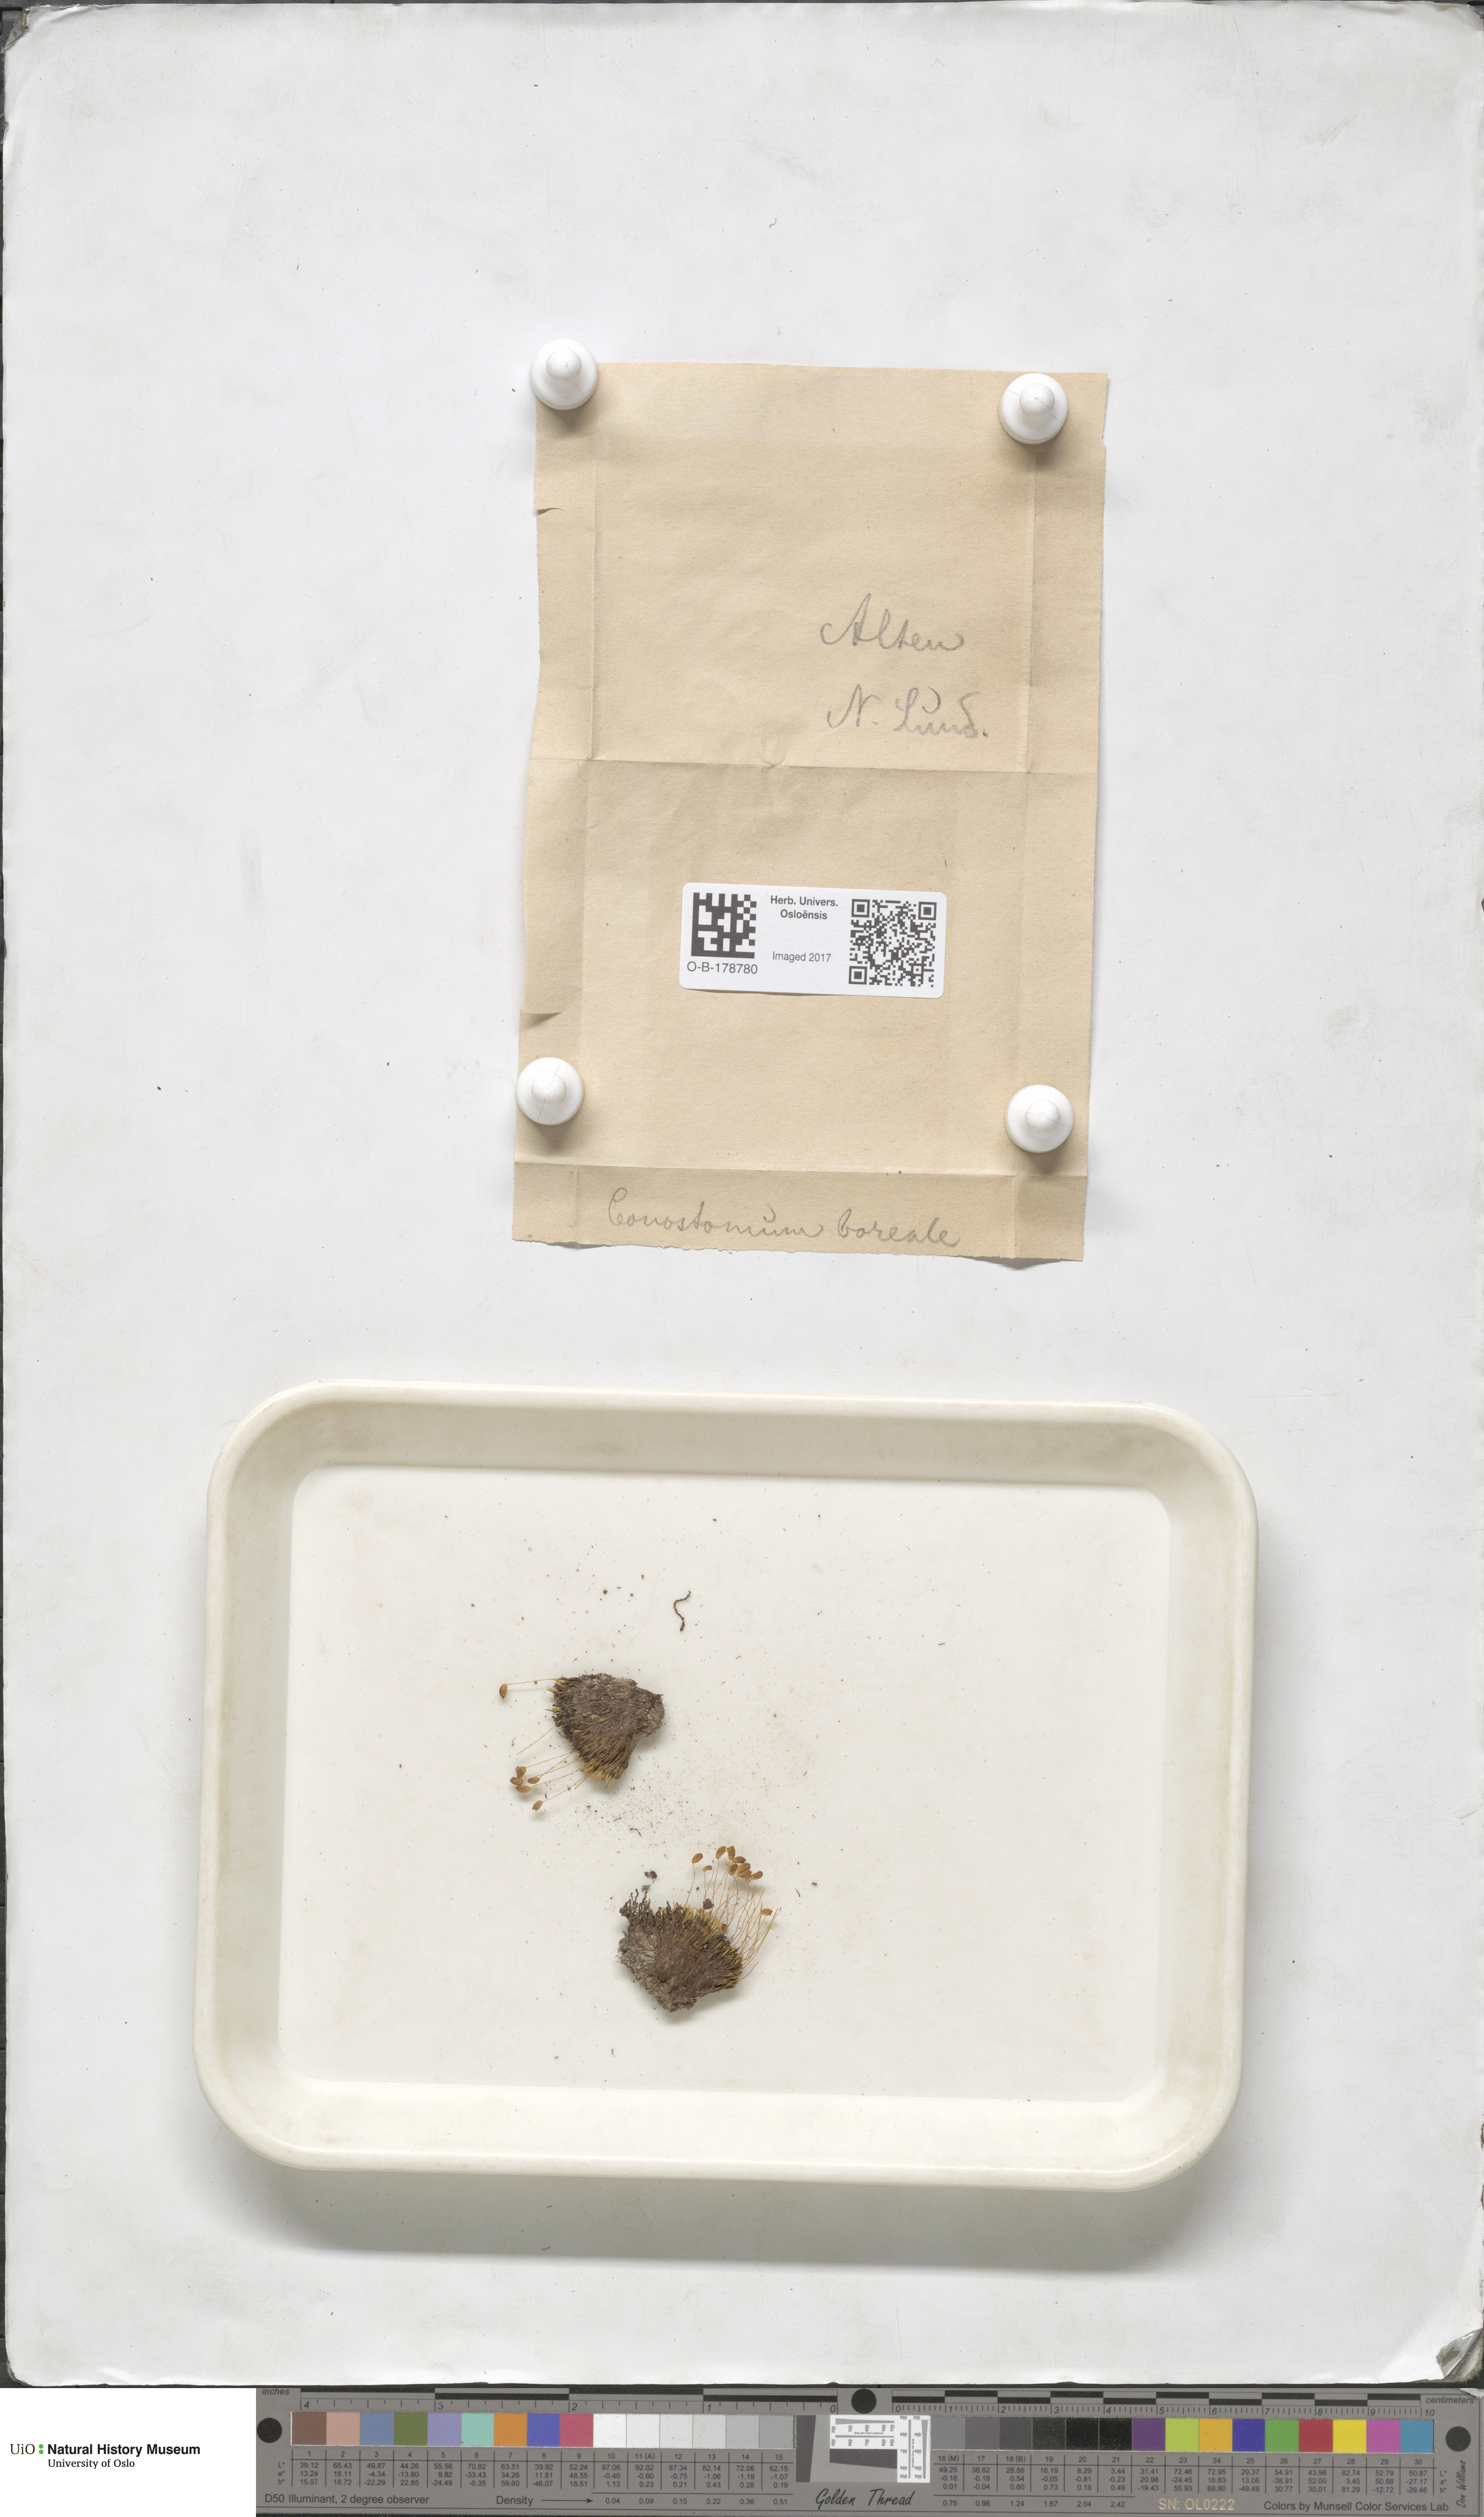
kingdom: Plantae
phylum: Bryophyta
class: Bryopsida
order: Bartramiales
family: Bartramiaceae
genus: Conostomum
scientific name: Conostomum tetragonum
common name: Helmet moss
